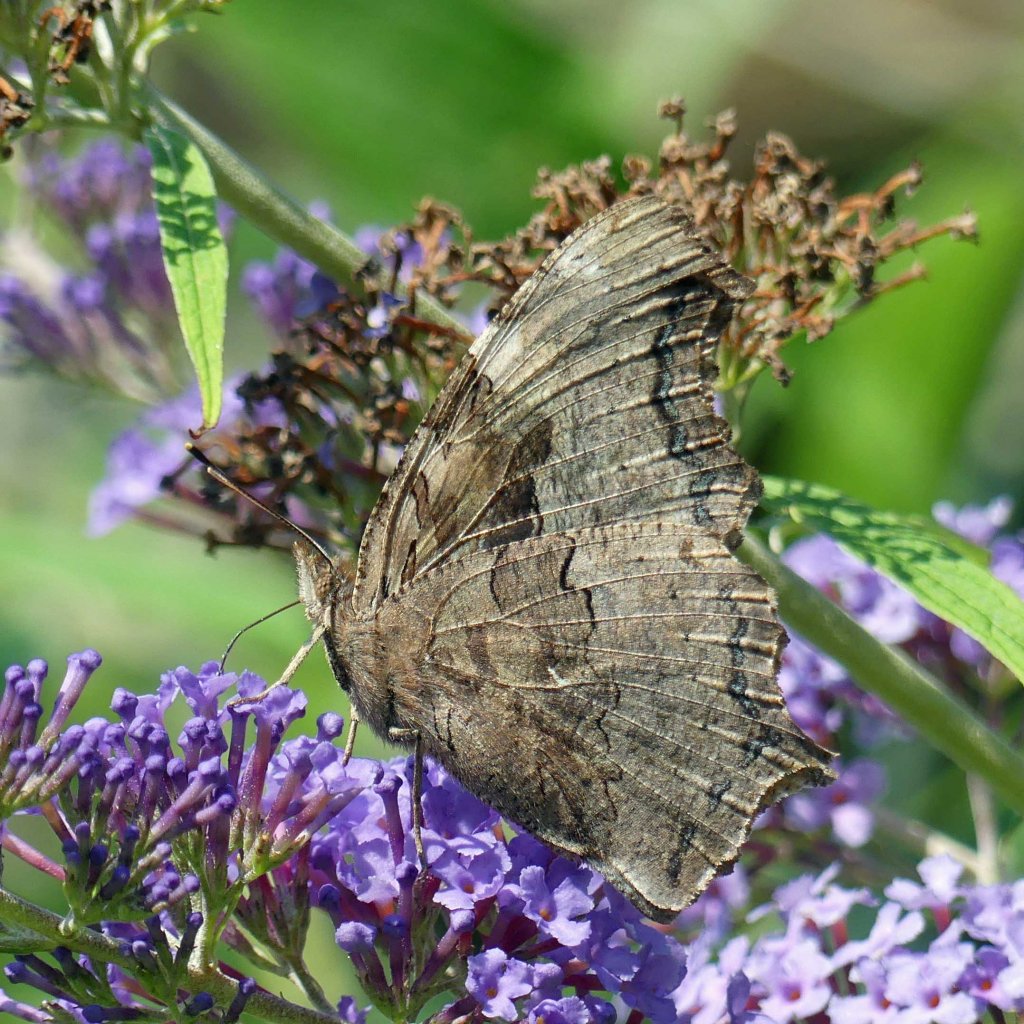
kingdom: Animalia
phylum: Arthropoda
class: Insecta
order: Lepidoptera
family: Nymphalidae
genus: Polygonia
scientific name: Polygonia vaualbum
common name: Compton Tortoiseshell
